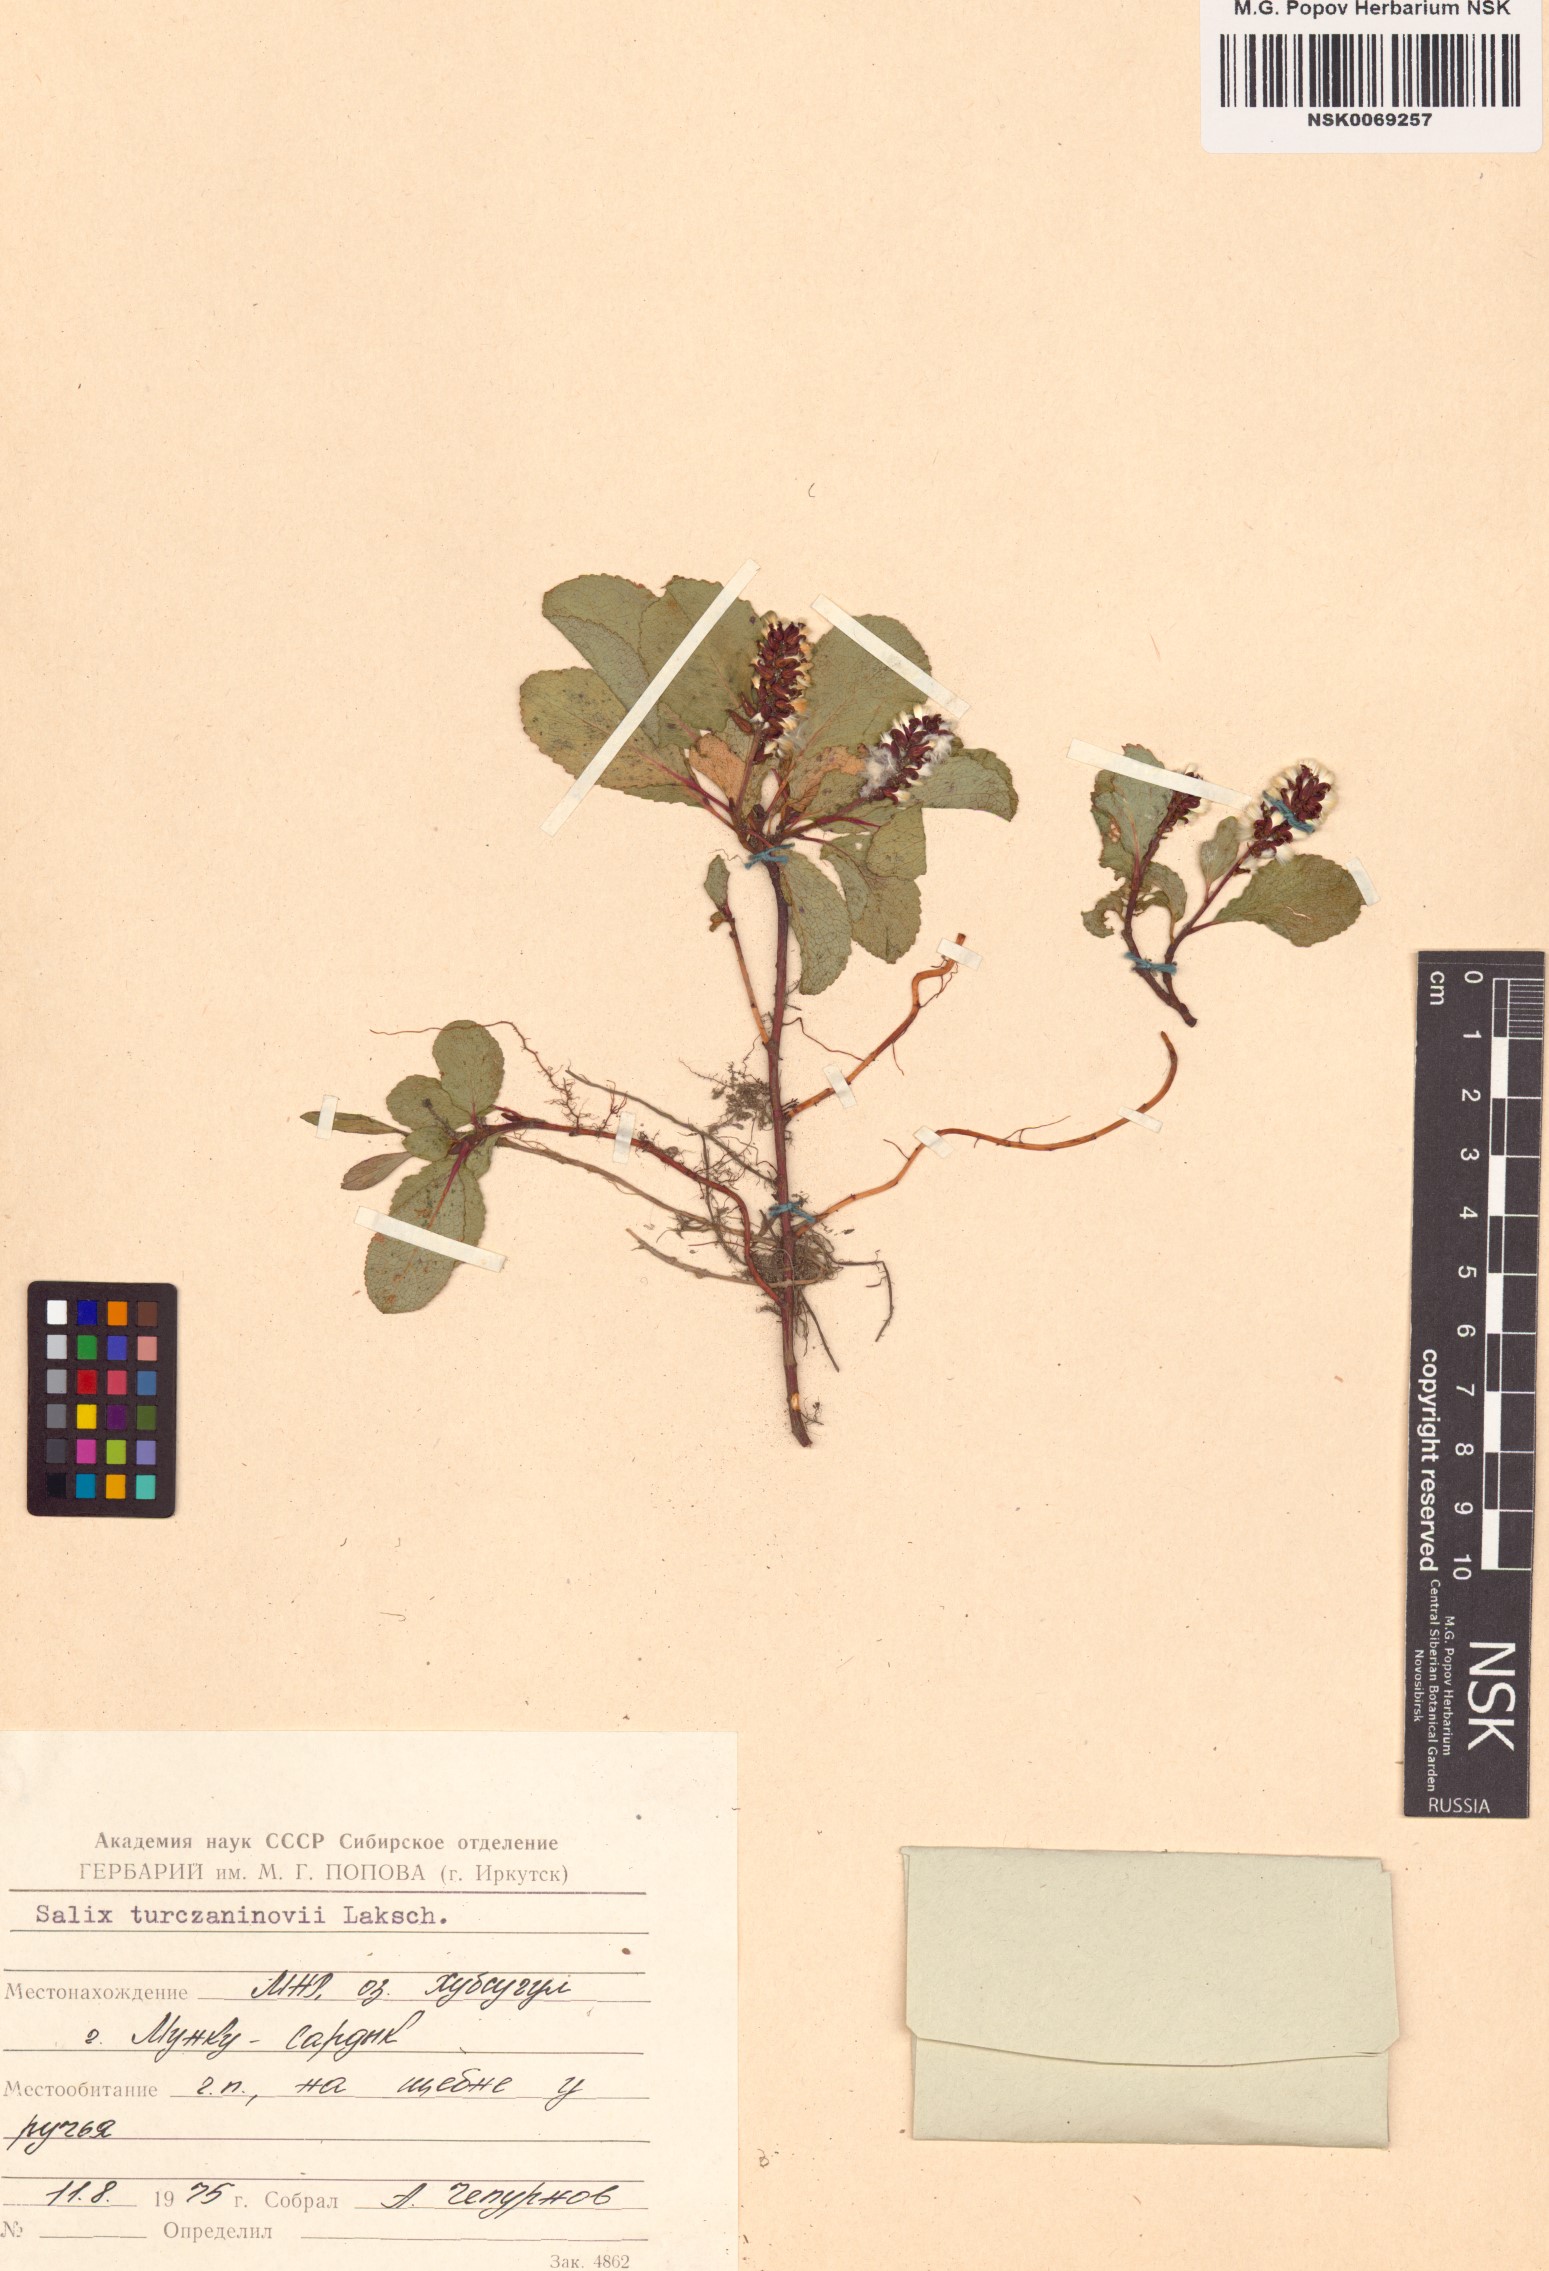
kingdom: Plantae
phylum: Tracheophyta
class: Magnoliopsida
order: Malpighiales
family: Salicaceae
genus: Salix
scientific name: Salix turczaninowii
